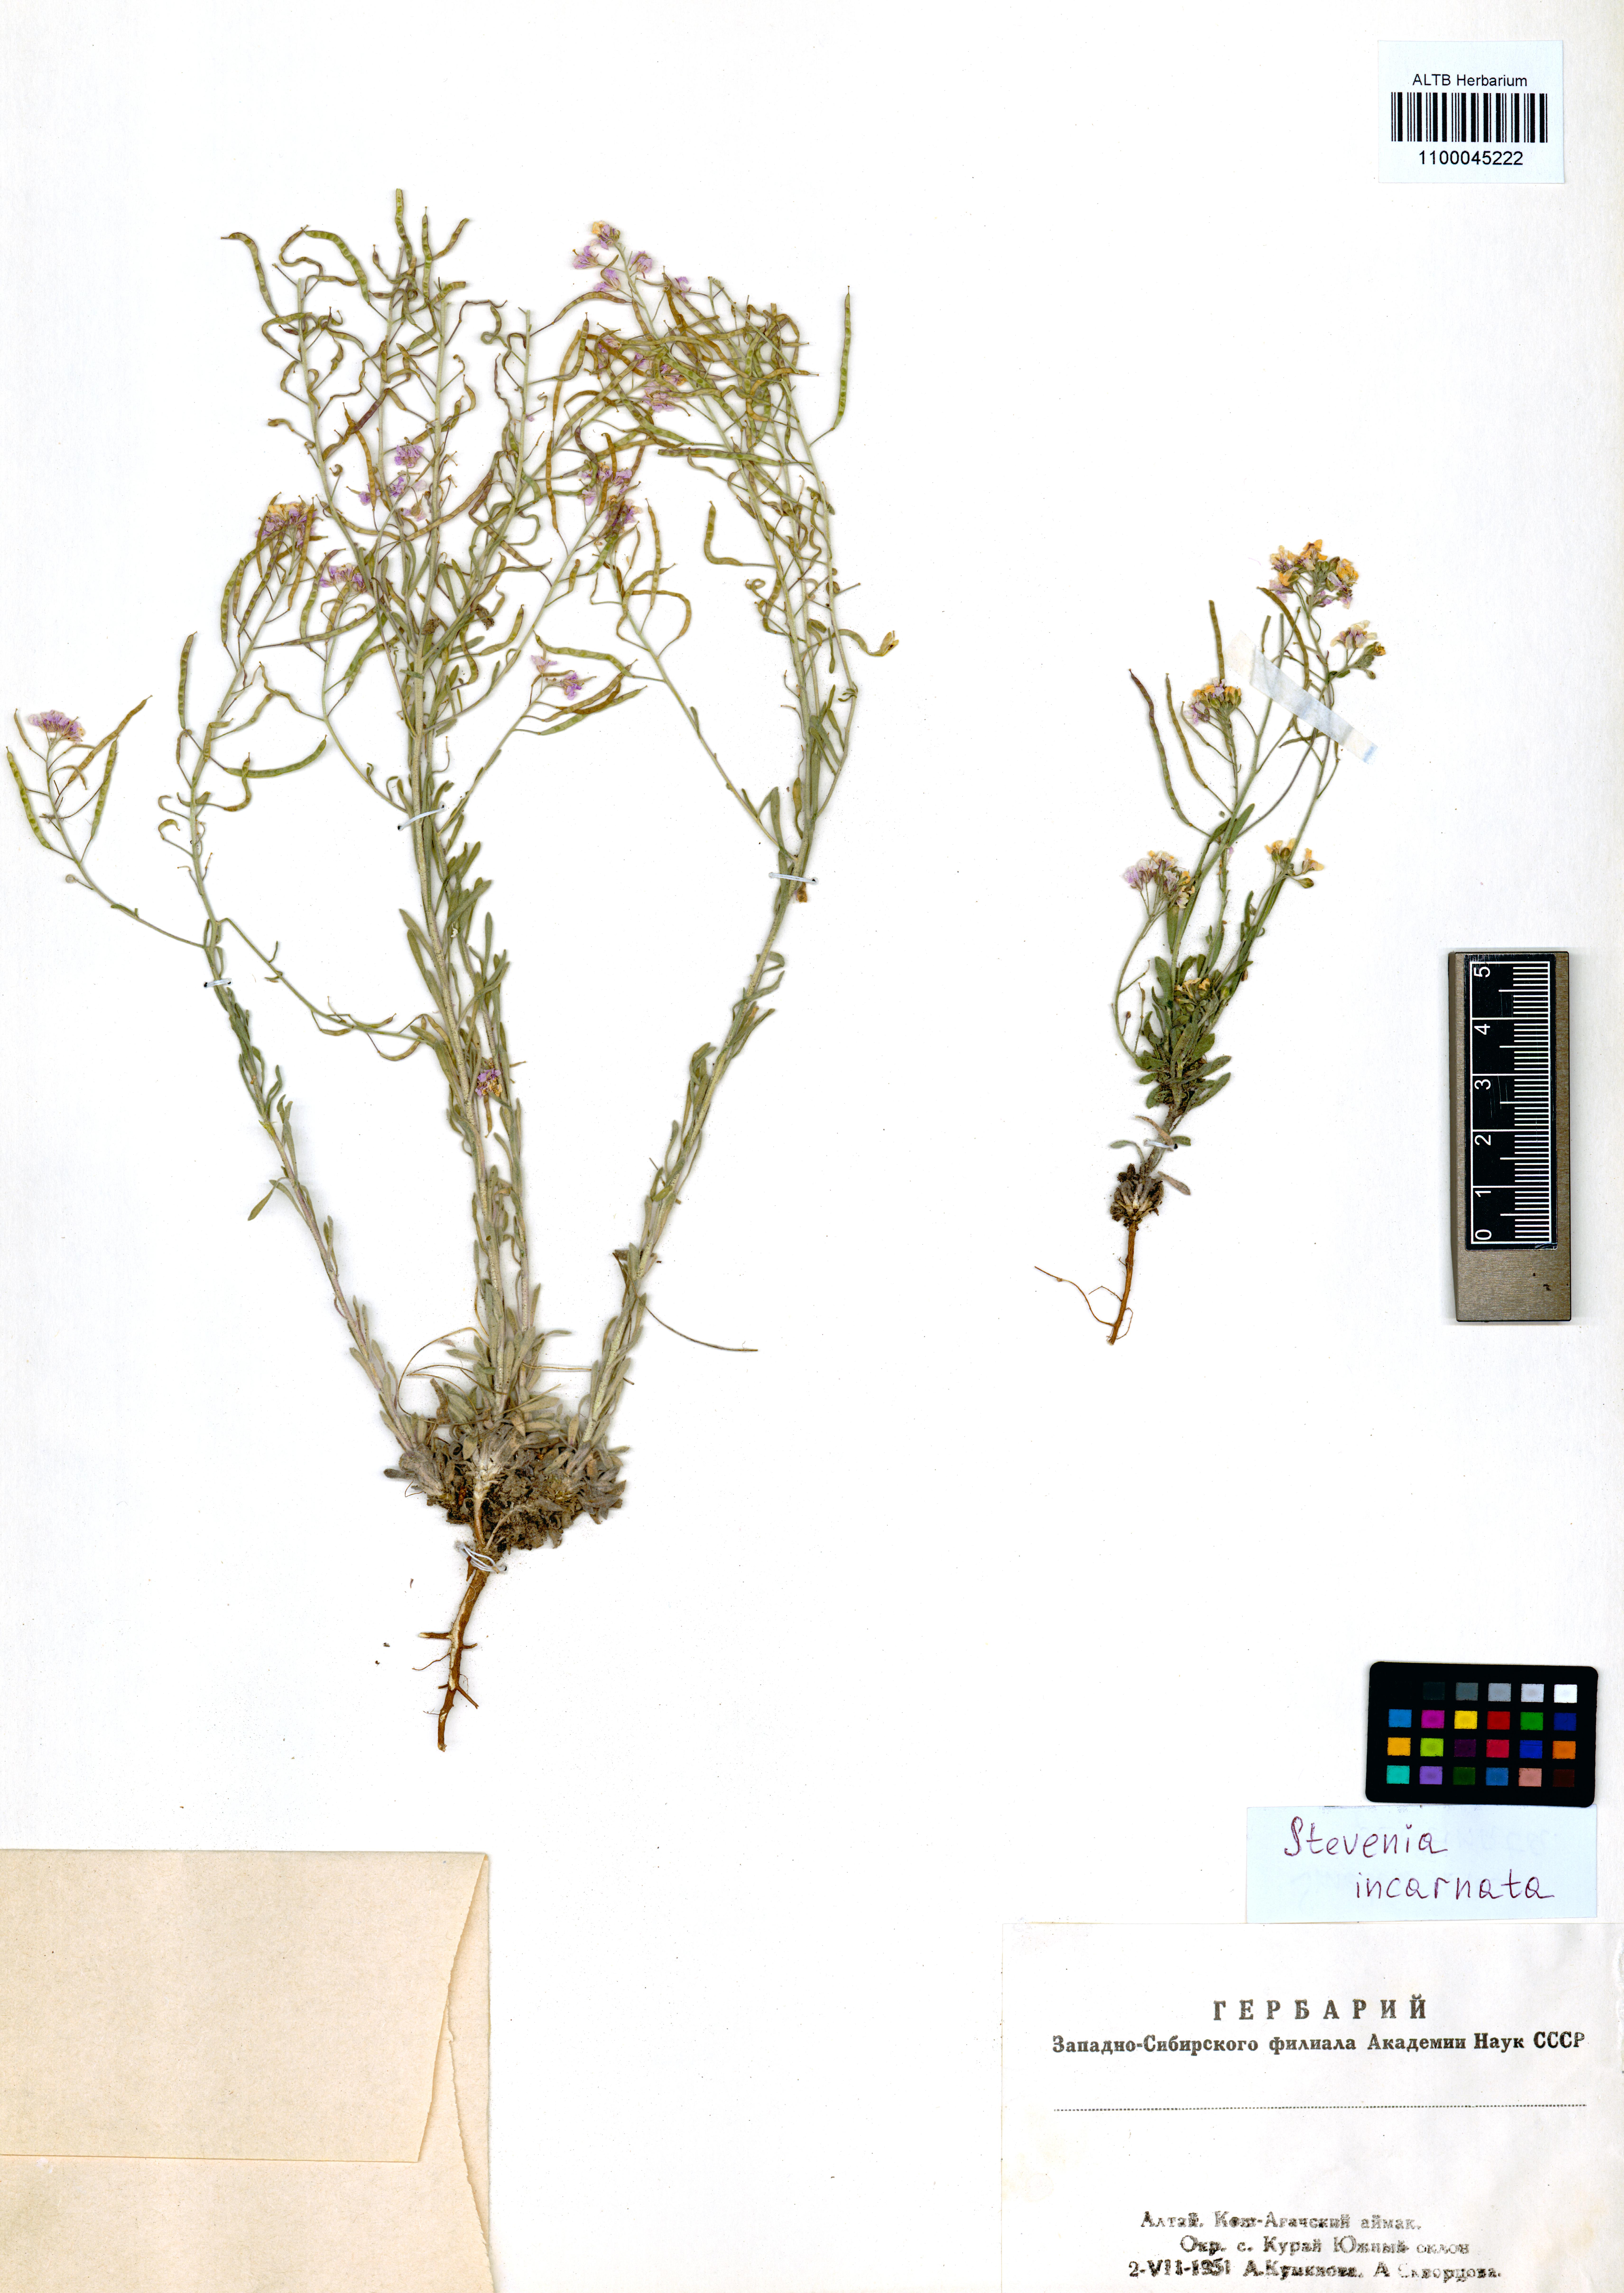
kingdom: Plantae
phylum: Tracheophyta
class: Magnoliopsida
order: Brassicales
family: Brassicaceae
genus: Stevenia
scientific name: Stevenia incarnata
